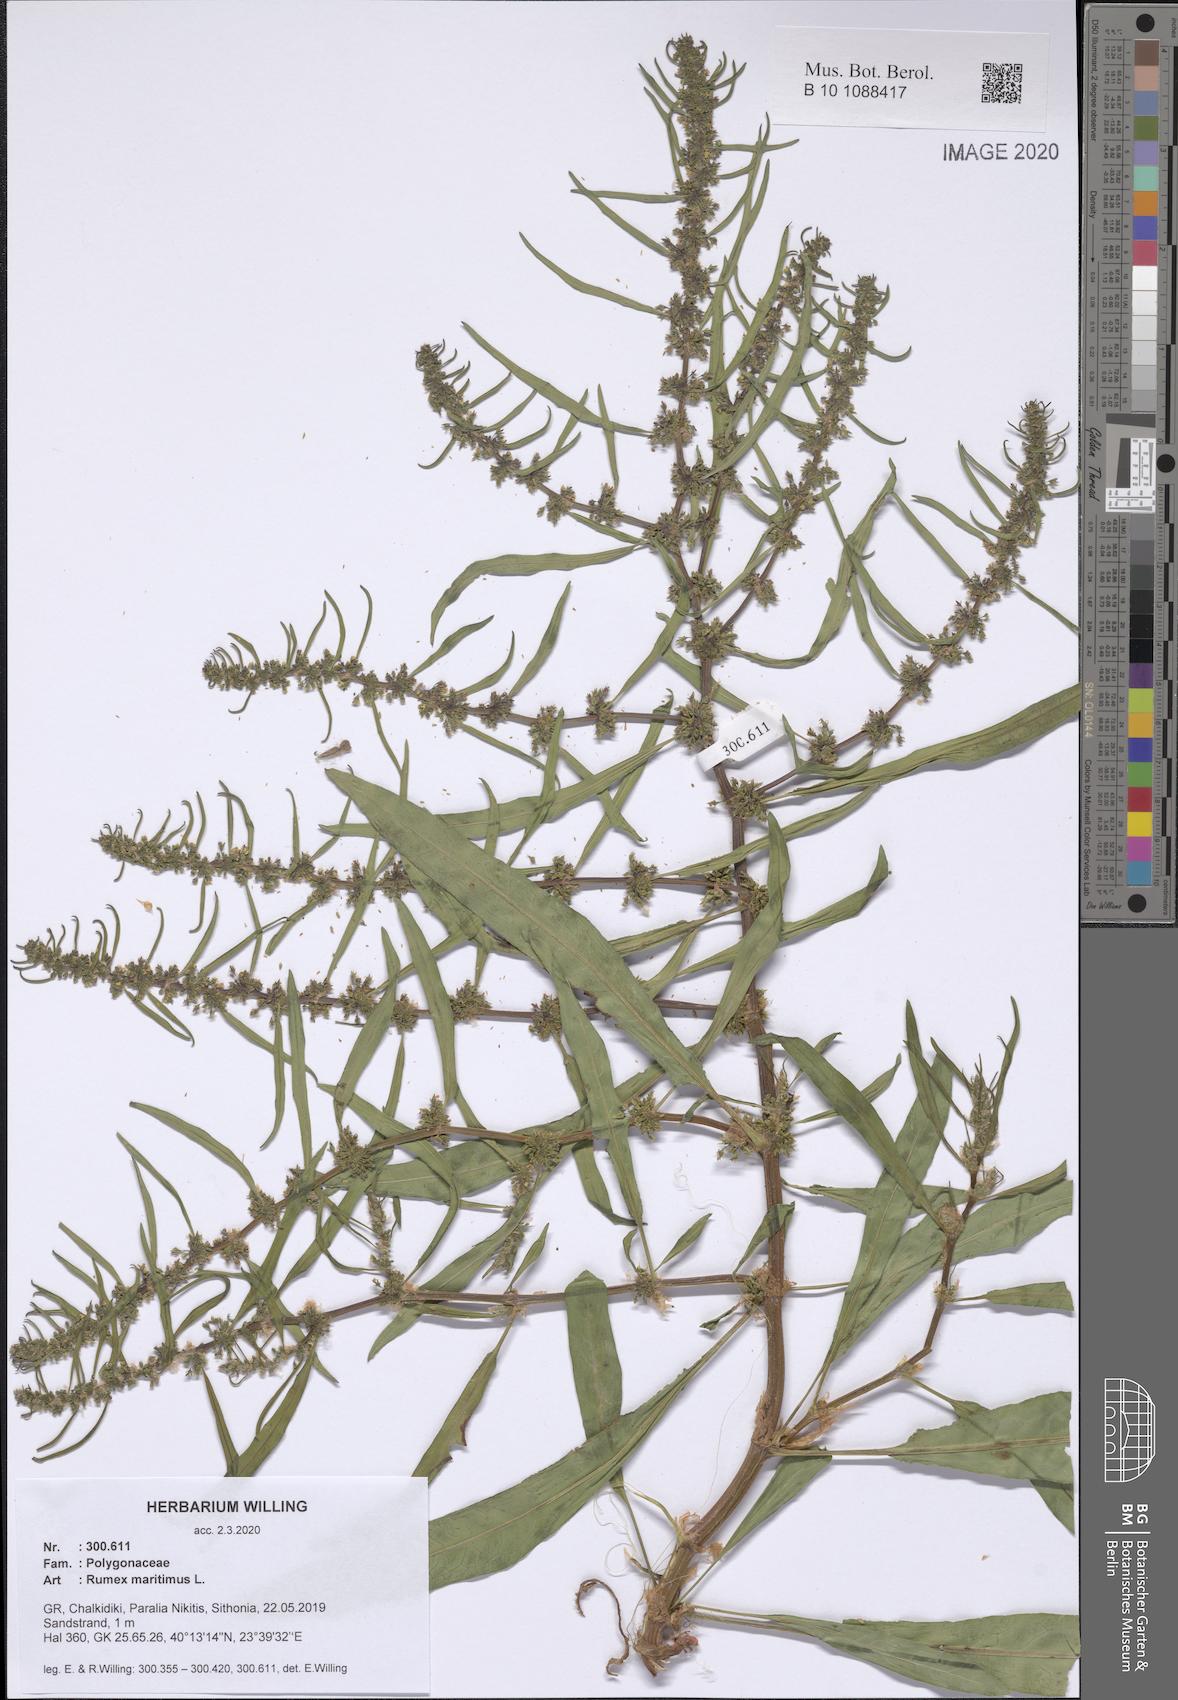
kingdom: Plantae
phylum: Tracheophyta
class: Magnoliopsida
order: Caryophyllales
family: Polygonaceae
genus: Rumex
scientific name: Rumex maritimus
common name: Golden dock
